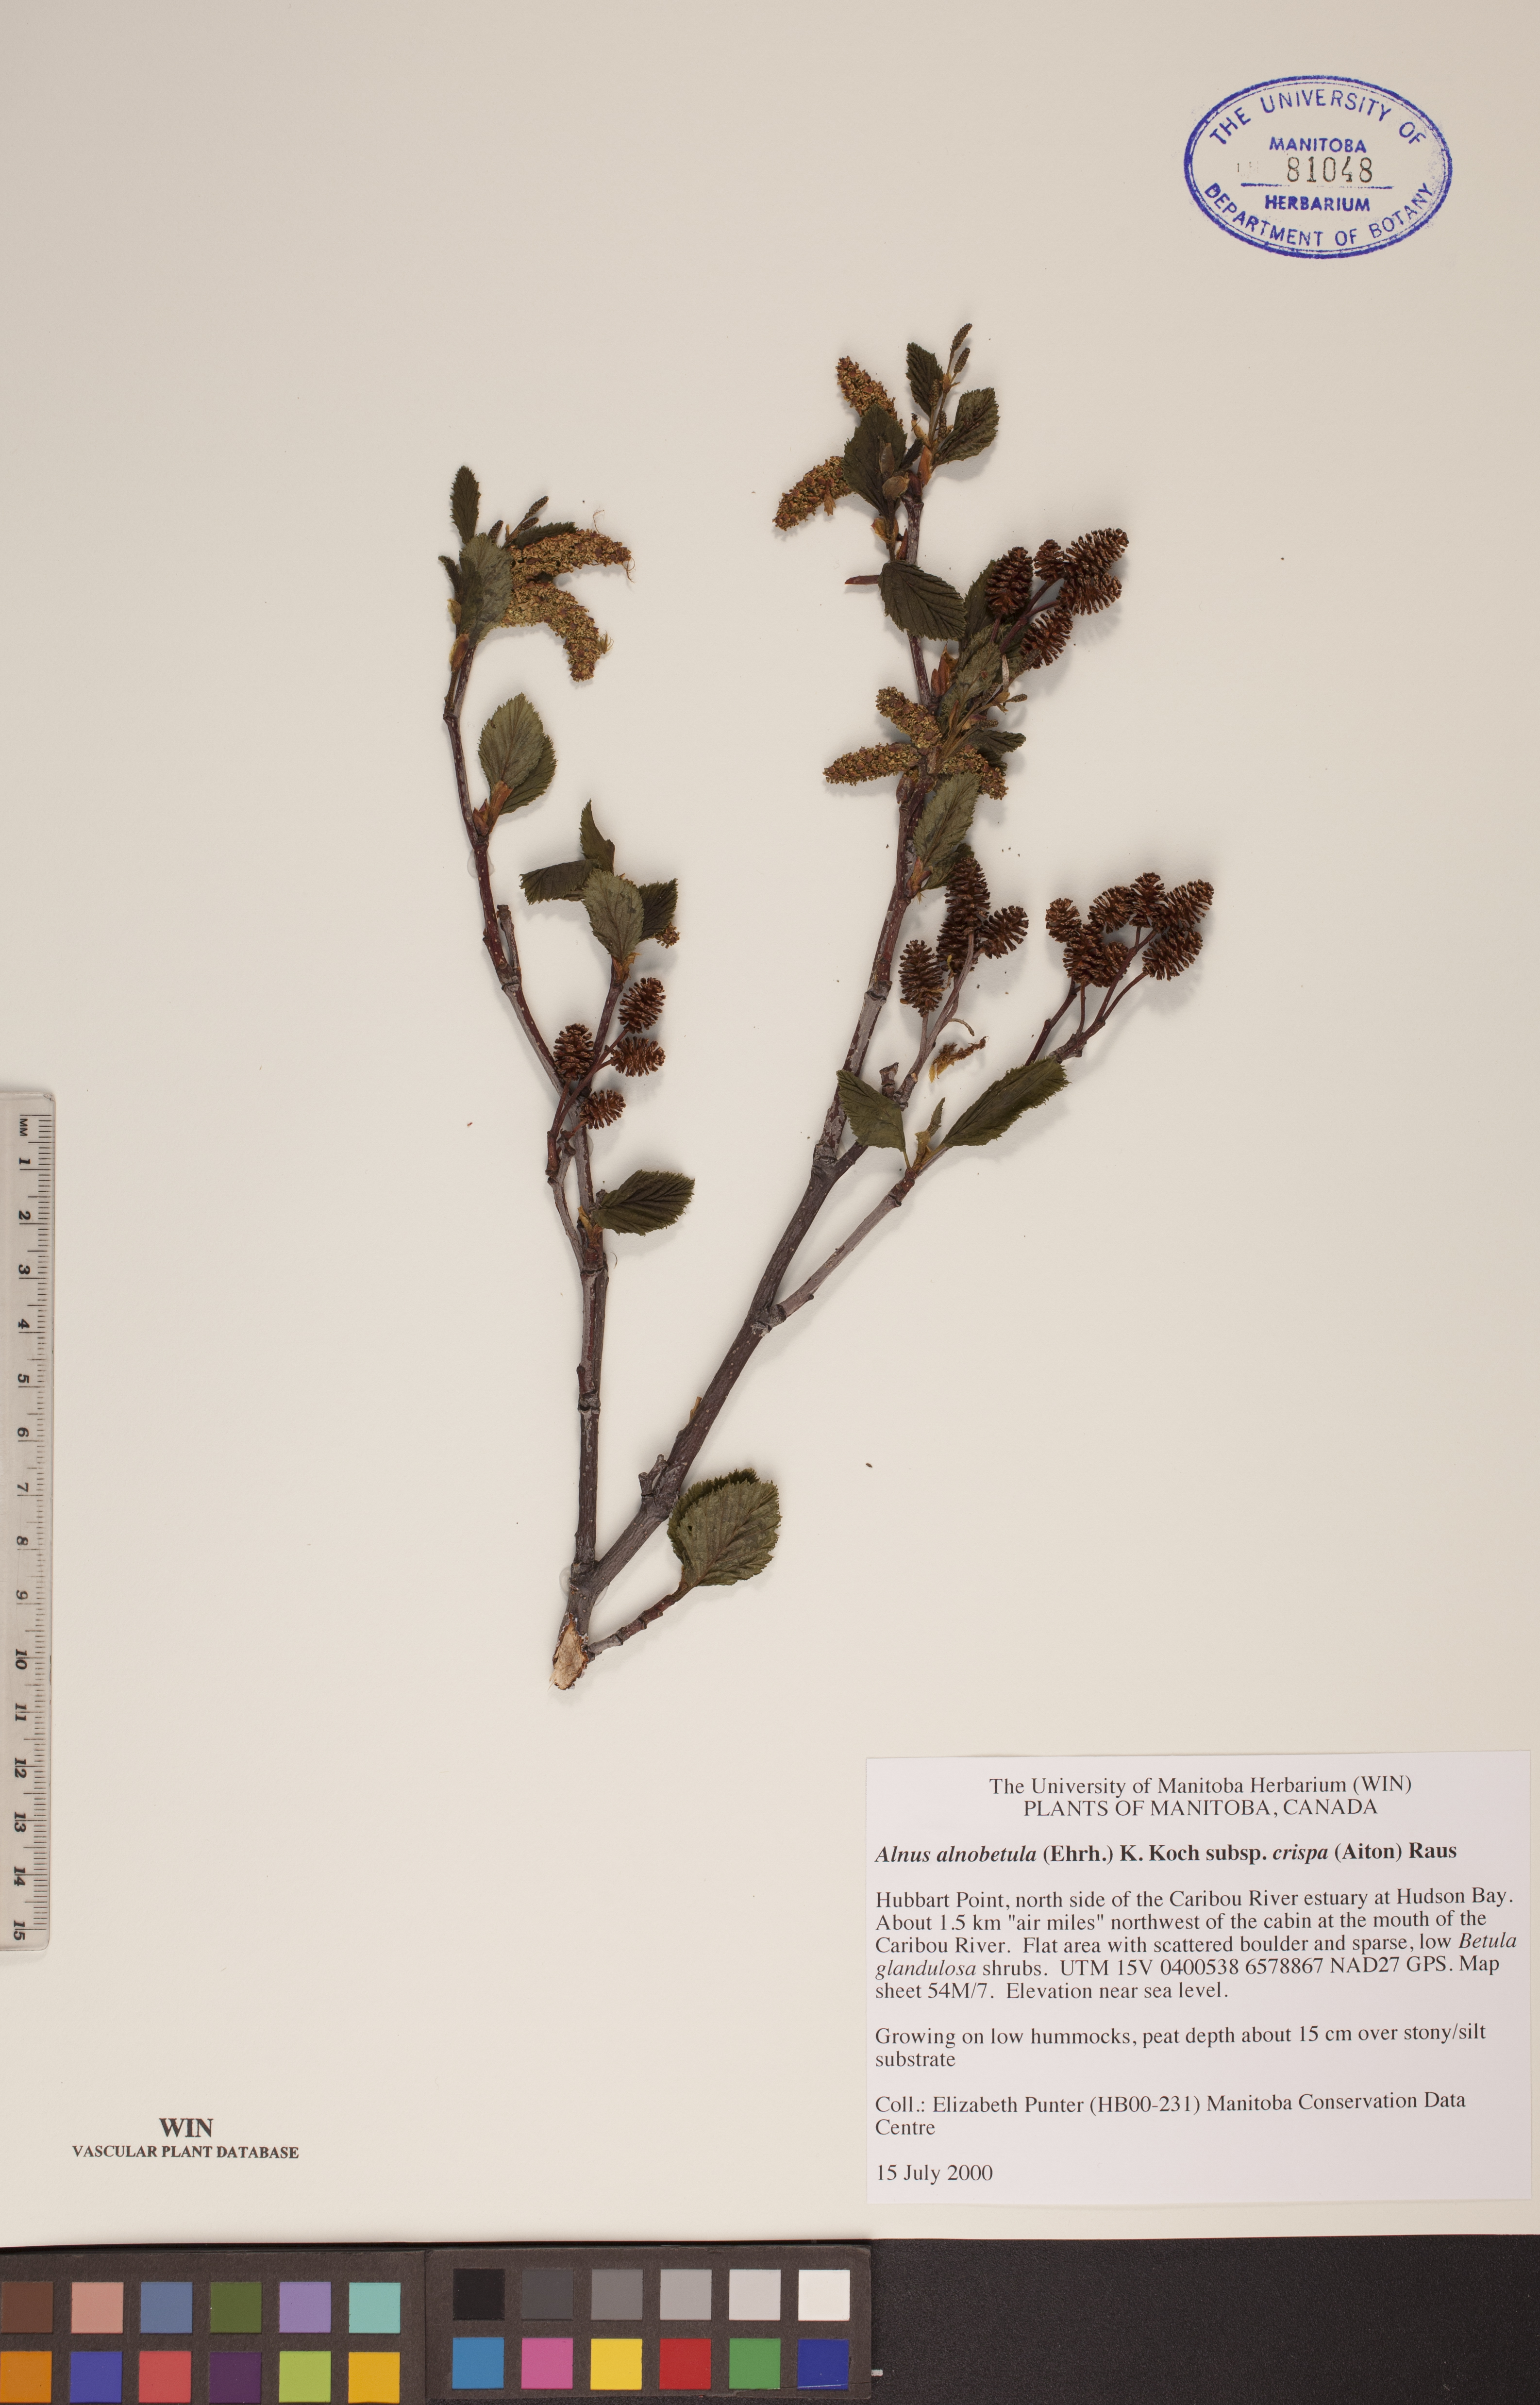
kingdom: Plantae
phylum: Tracheophyta
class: Magnoliopsida
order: Fagales
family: Betulaceae
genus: Alnus
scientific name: Alnus alnobetula
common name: Green alder
